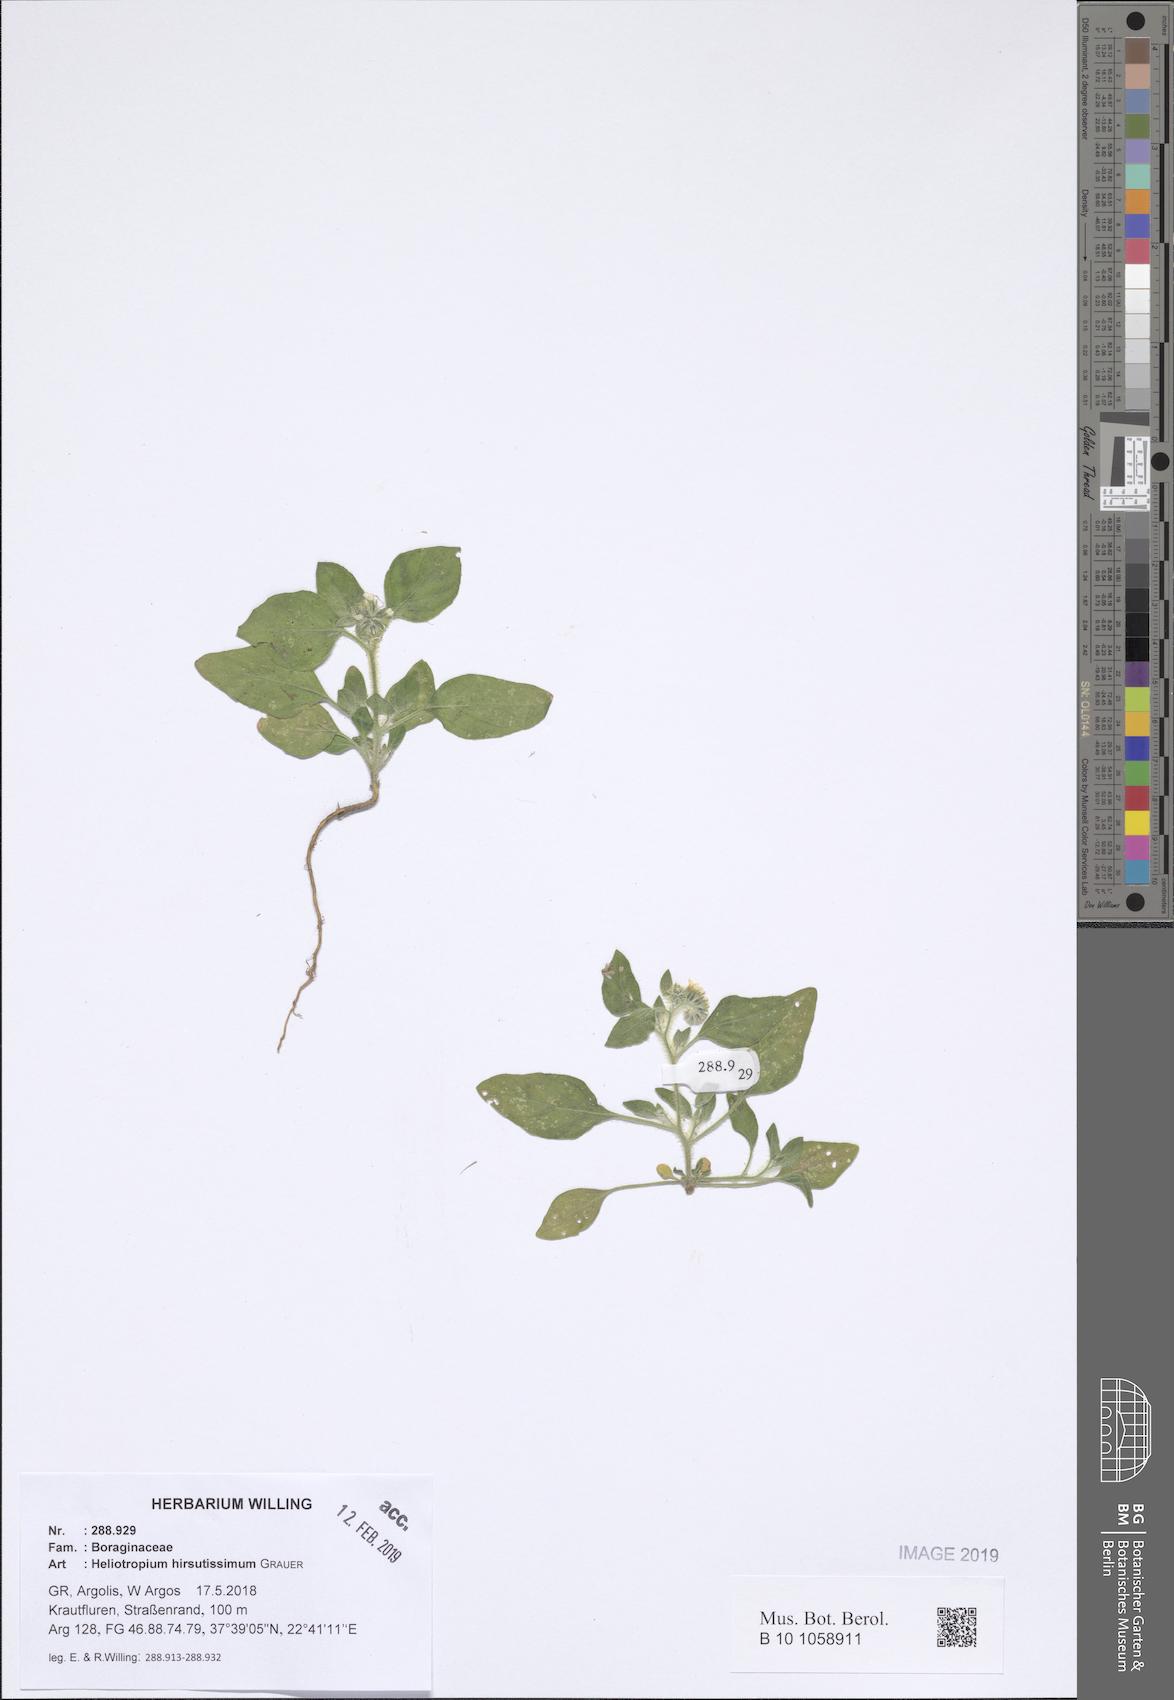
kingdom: Plantae
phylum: Tracheophyta
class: Magnoliopsida
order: Boraginales
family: Heliotropiaceae
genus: Heliotropium
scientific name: Heliotropium hirsutissimum
